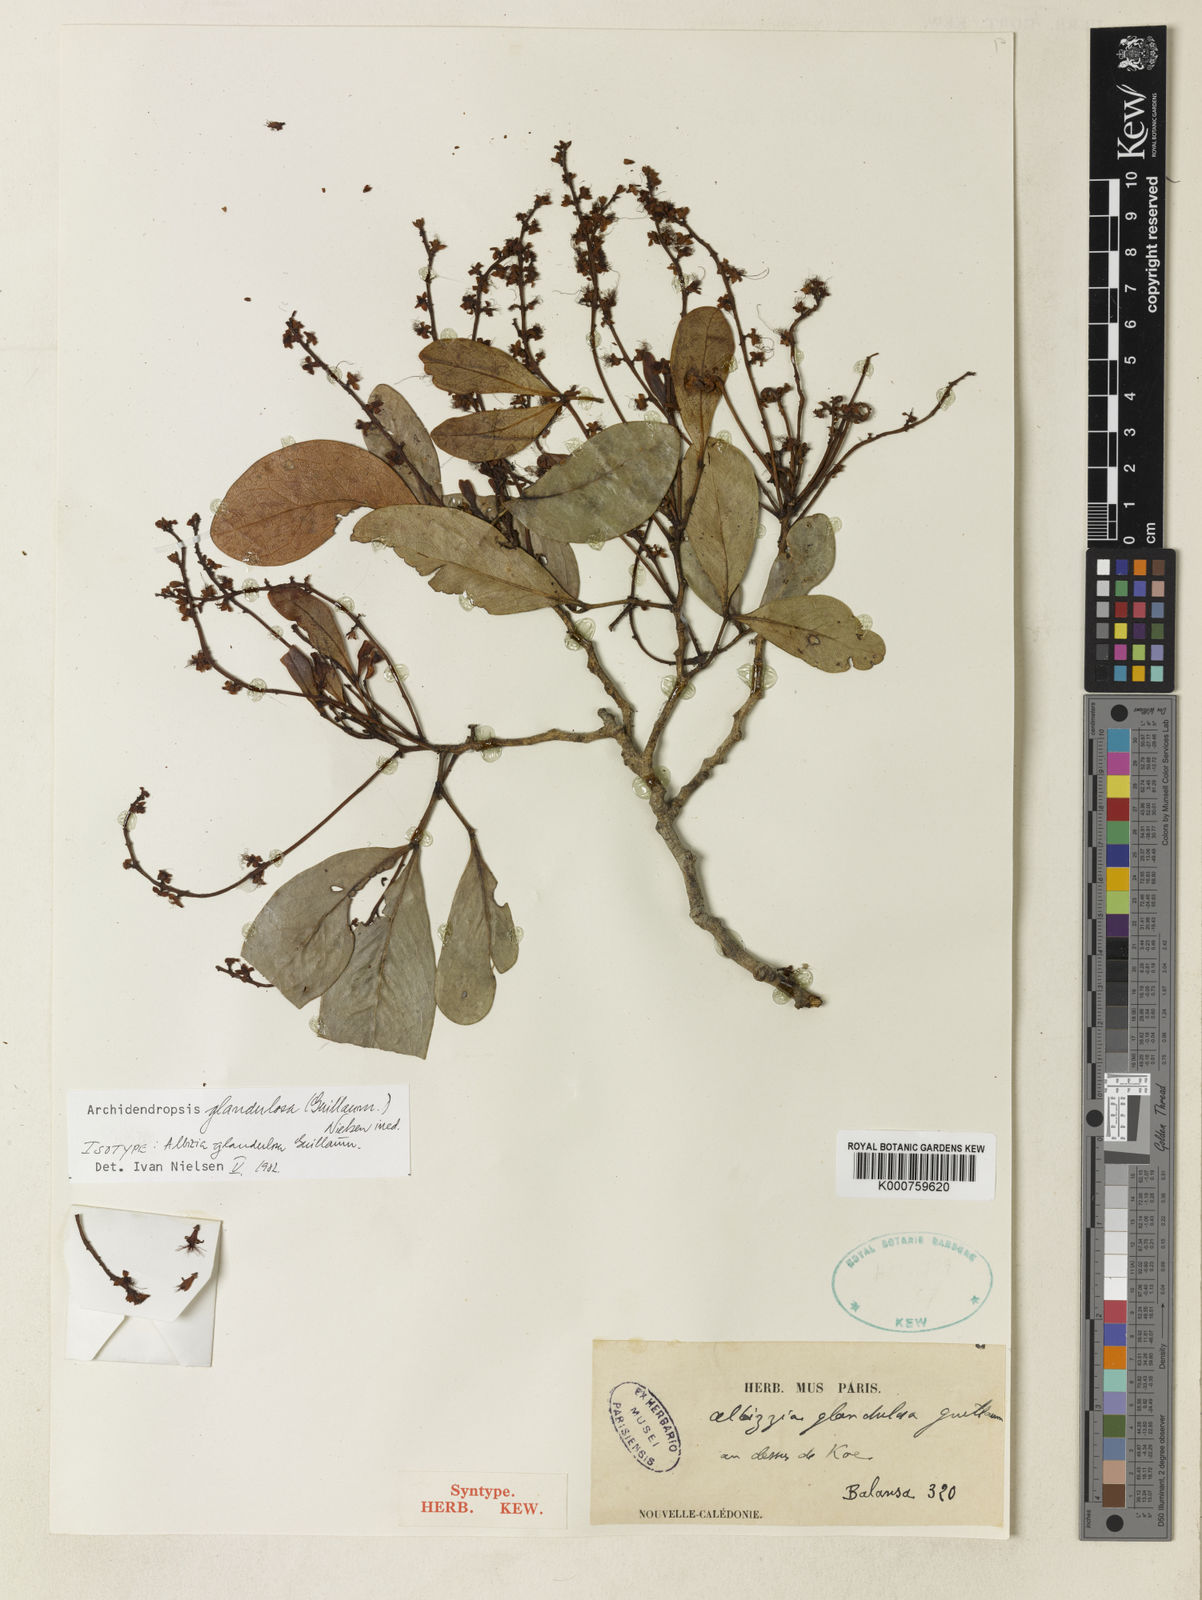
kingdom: Plantae
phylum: Tracheophyta
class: Magnoliopsida
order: Fabales
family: Fabaceae
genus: Archidendropsis
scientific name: Archidendropsis glandulosa
